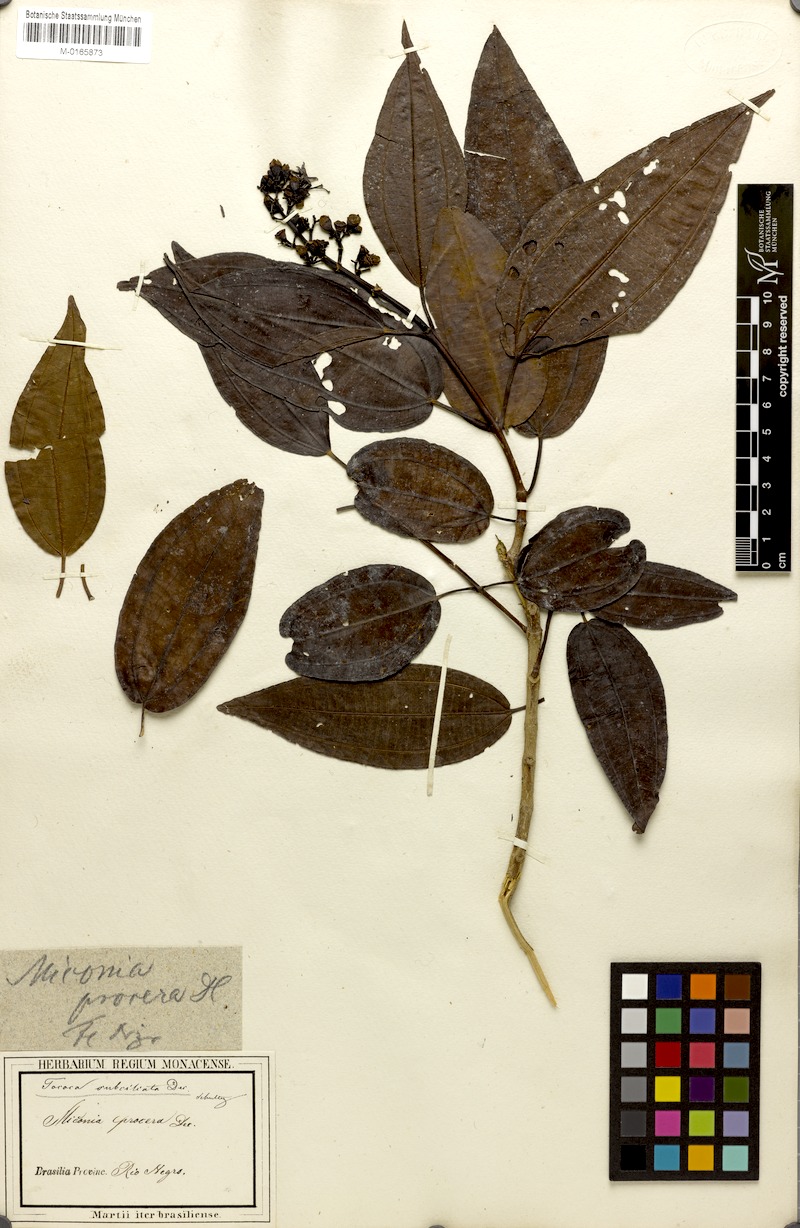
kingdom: Plantae
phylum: Tracheophyta
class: Magnoliopsida
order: Myrtales
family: Melastomataceae
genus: Miconia
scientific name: Miconia subciliata
